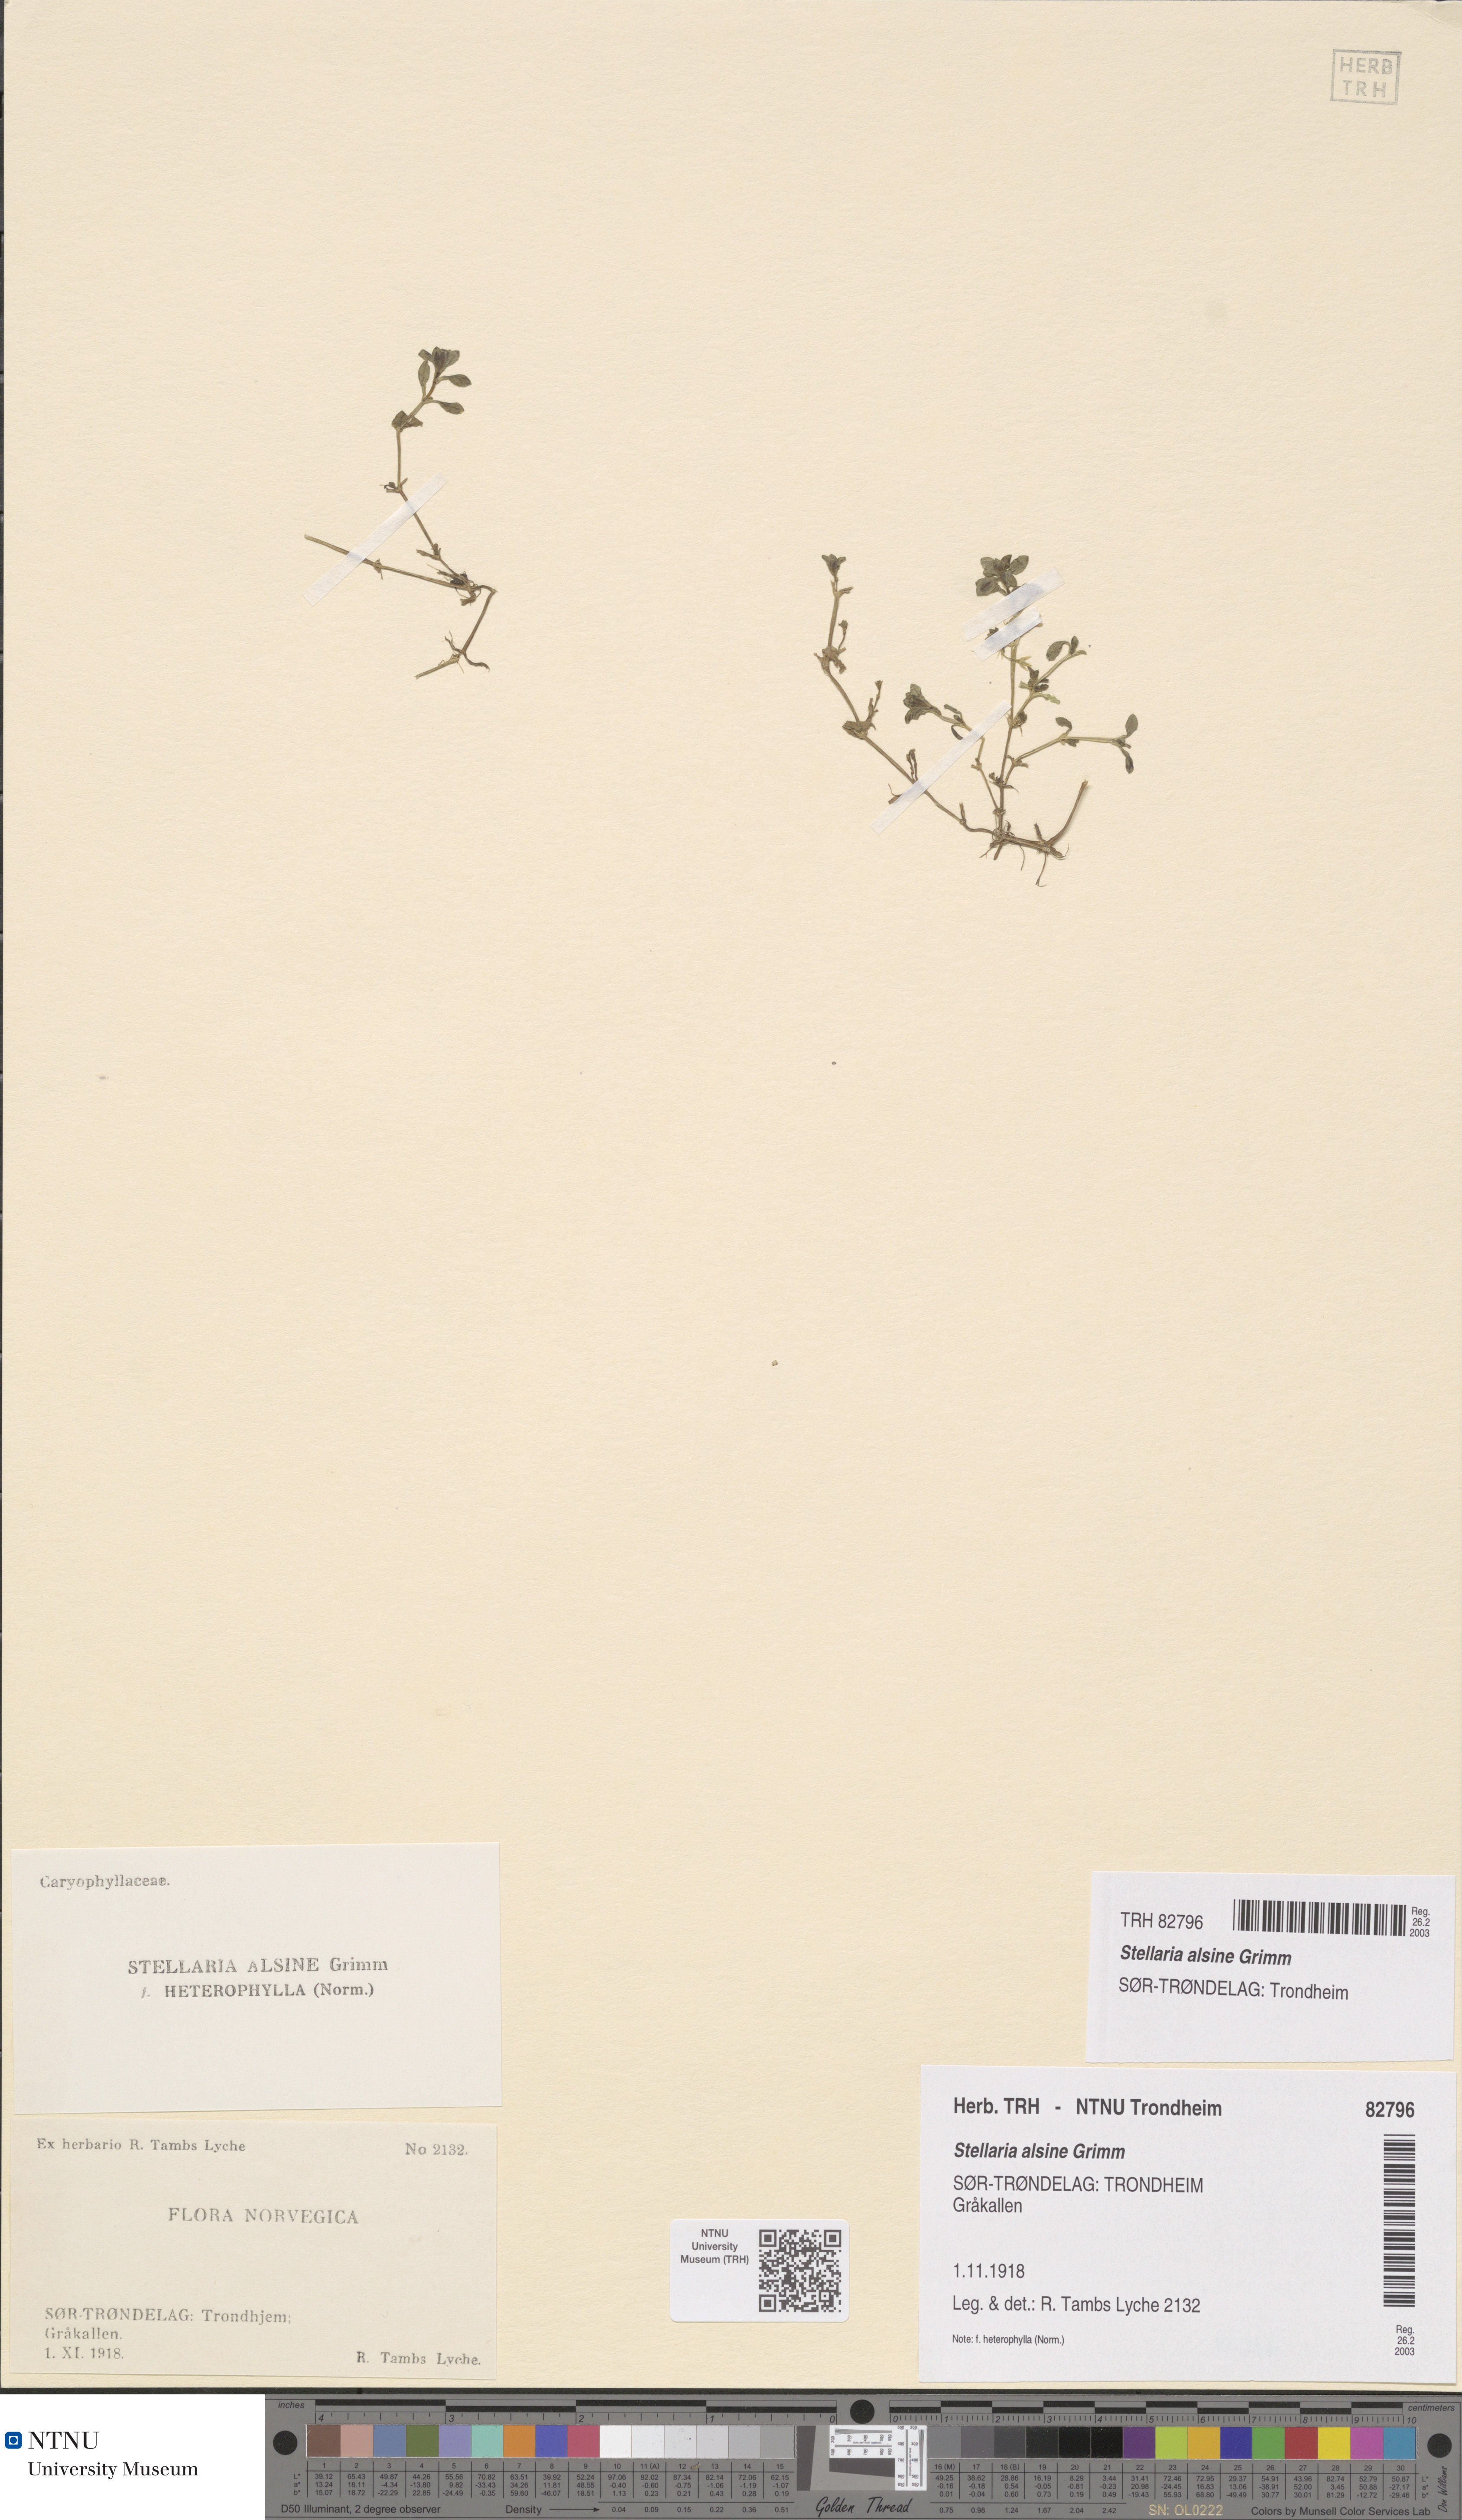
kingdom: Plantae
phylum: Tracheophyta
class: Magnoliopsida
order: Caryophyllales
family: Caryophyllaceae
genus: Stellaria
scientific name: Stellaria alsine
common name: Bog stitchwort
